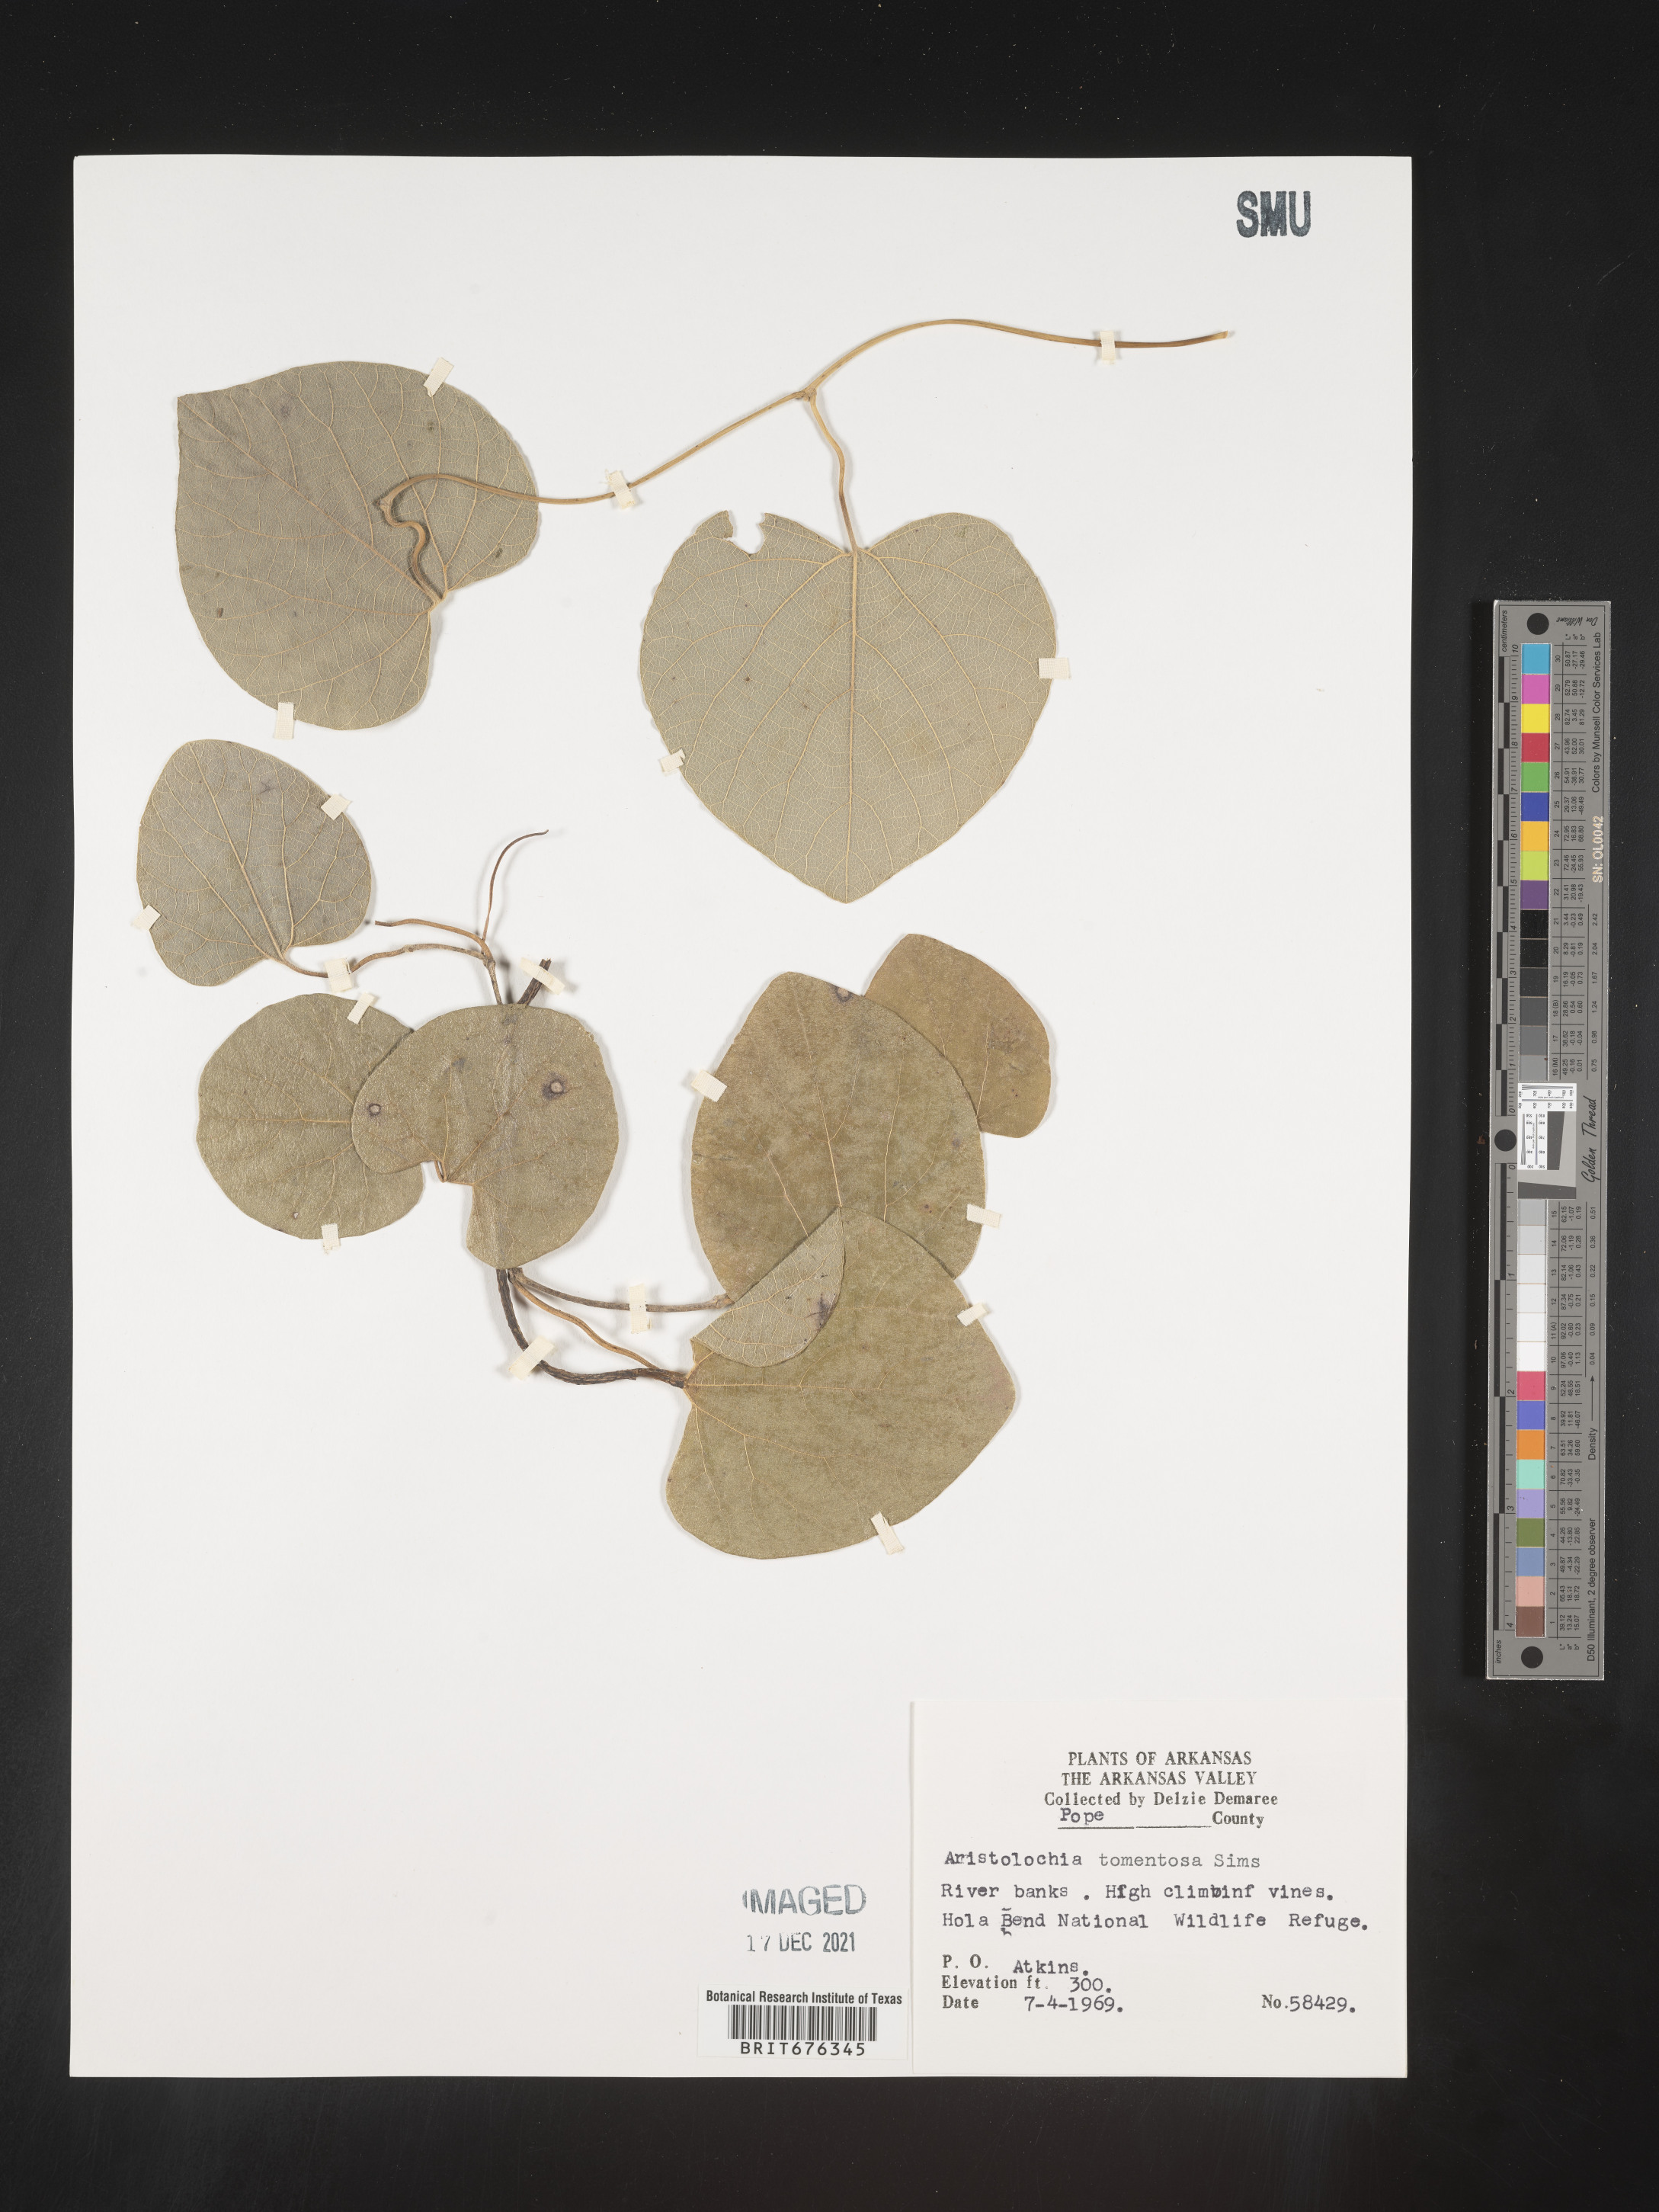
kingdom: Plantae
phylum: Tracheophyta
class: Magnoliopsida
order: Piperales
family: Aristolochiaceae
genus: Isotrema
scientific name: Isotrema tomentosum
